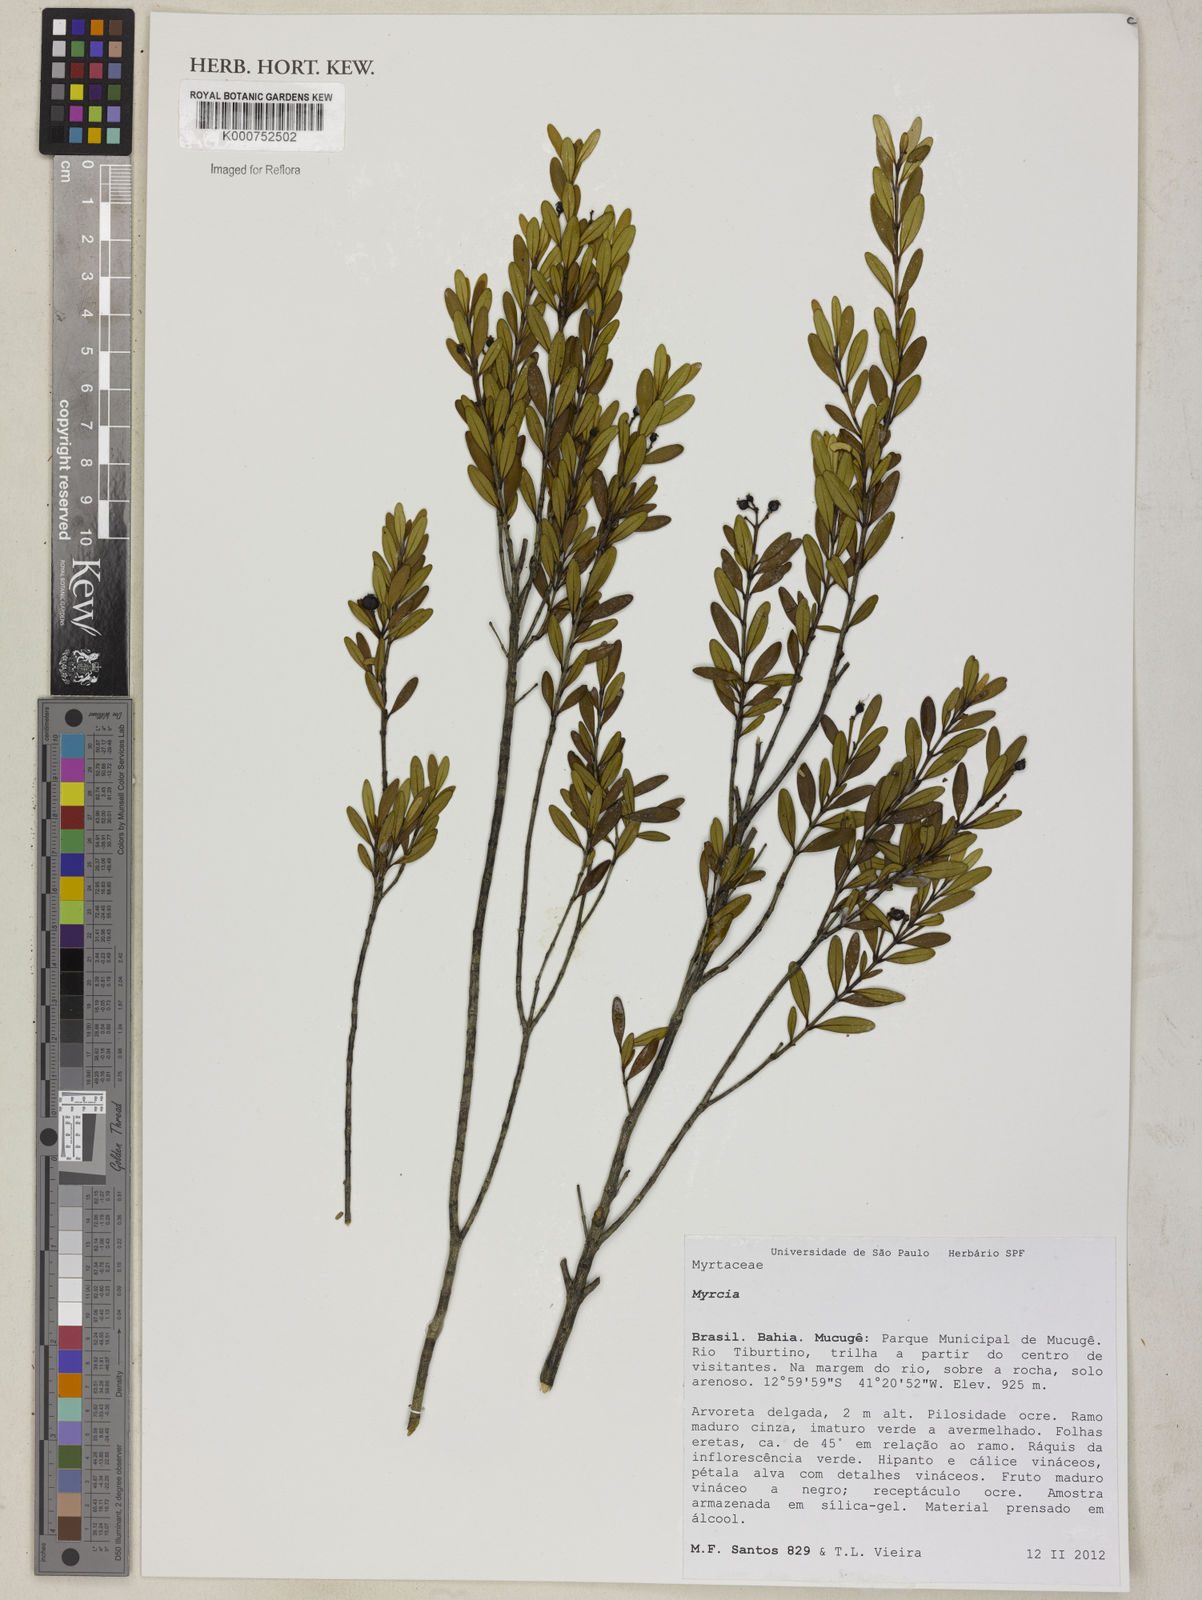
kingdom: Plantae
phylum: Tracheophyta
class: Magnoliopsida
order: Myrtales
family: Myrtaceae
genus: Myrcia
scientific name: Myrcia ascendens
